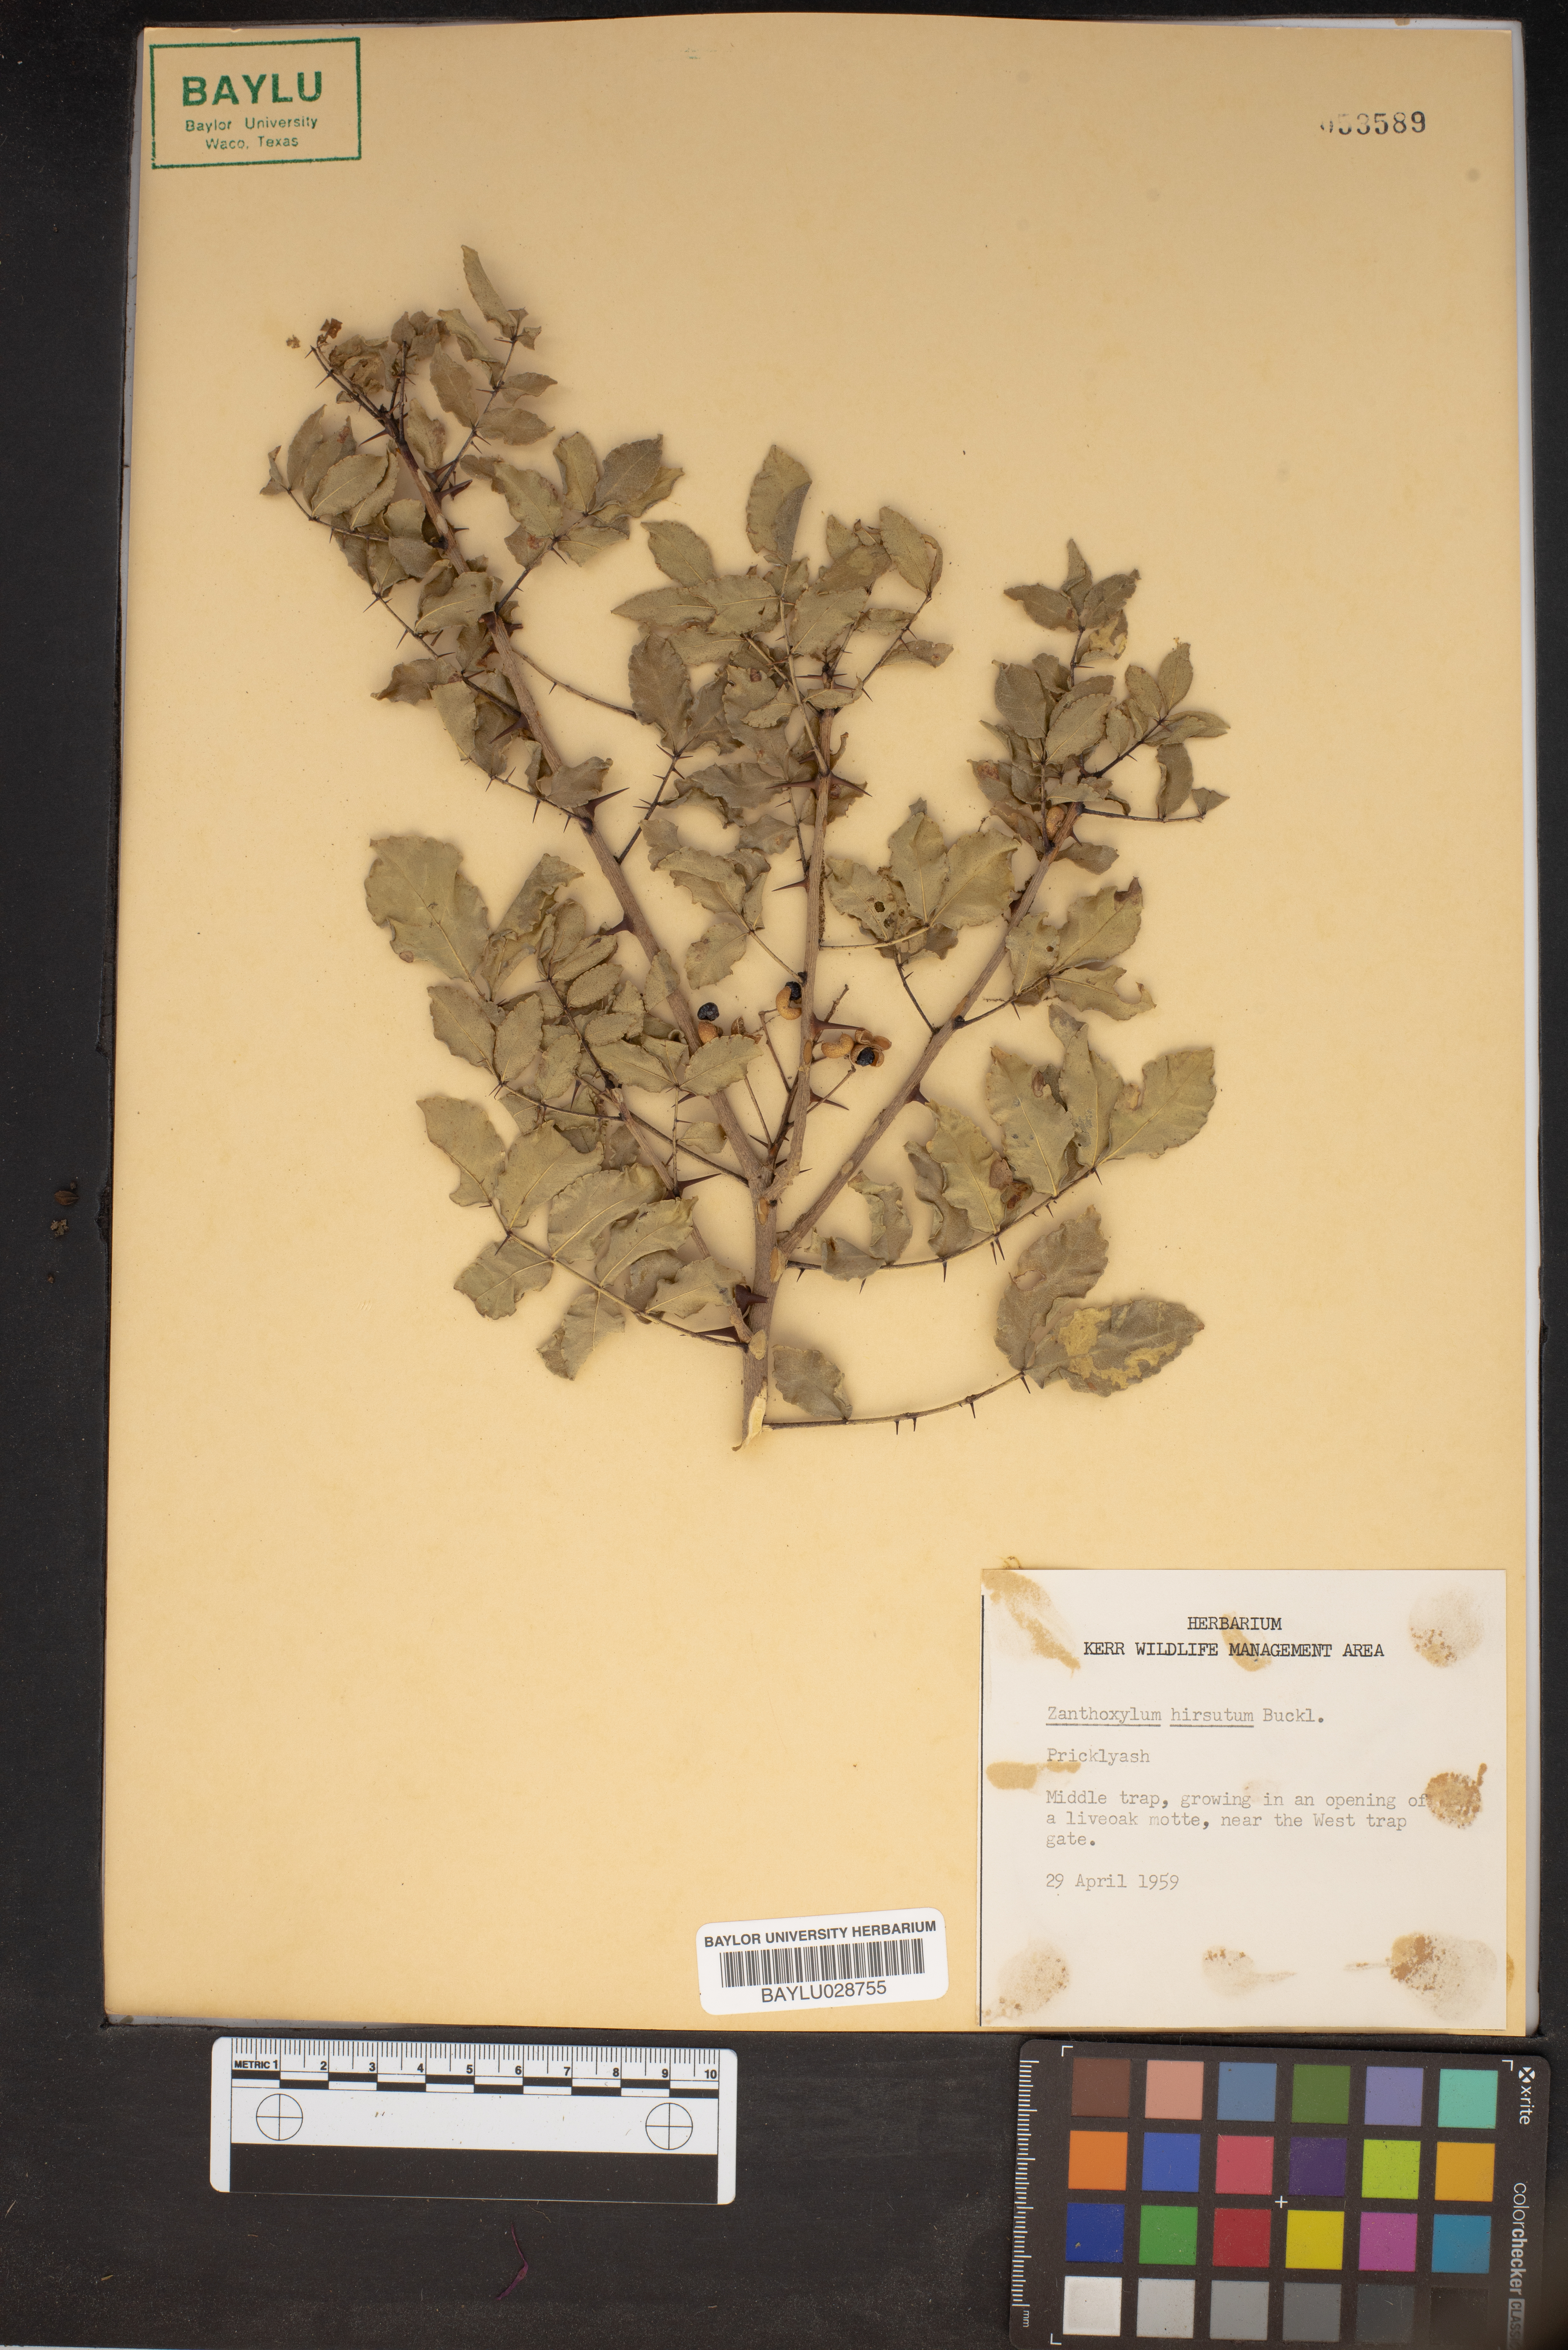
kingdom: Plantae
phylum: Tracheophyta
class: Magnoliopsida
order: Sapindales
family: Rutaceae
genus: Zanthoxylum
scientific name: Zanthoxylum clava-herculis
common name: Hercules'-club
